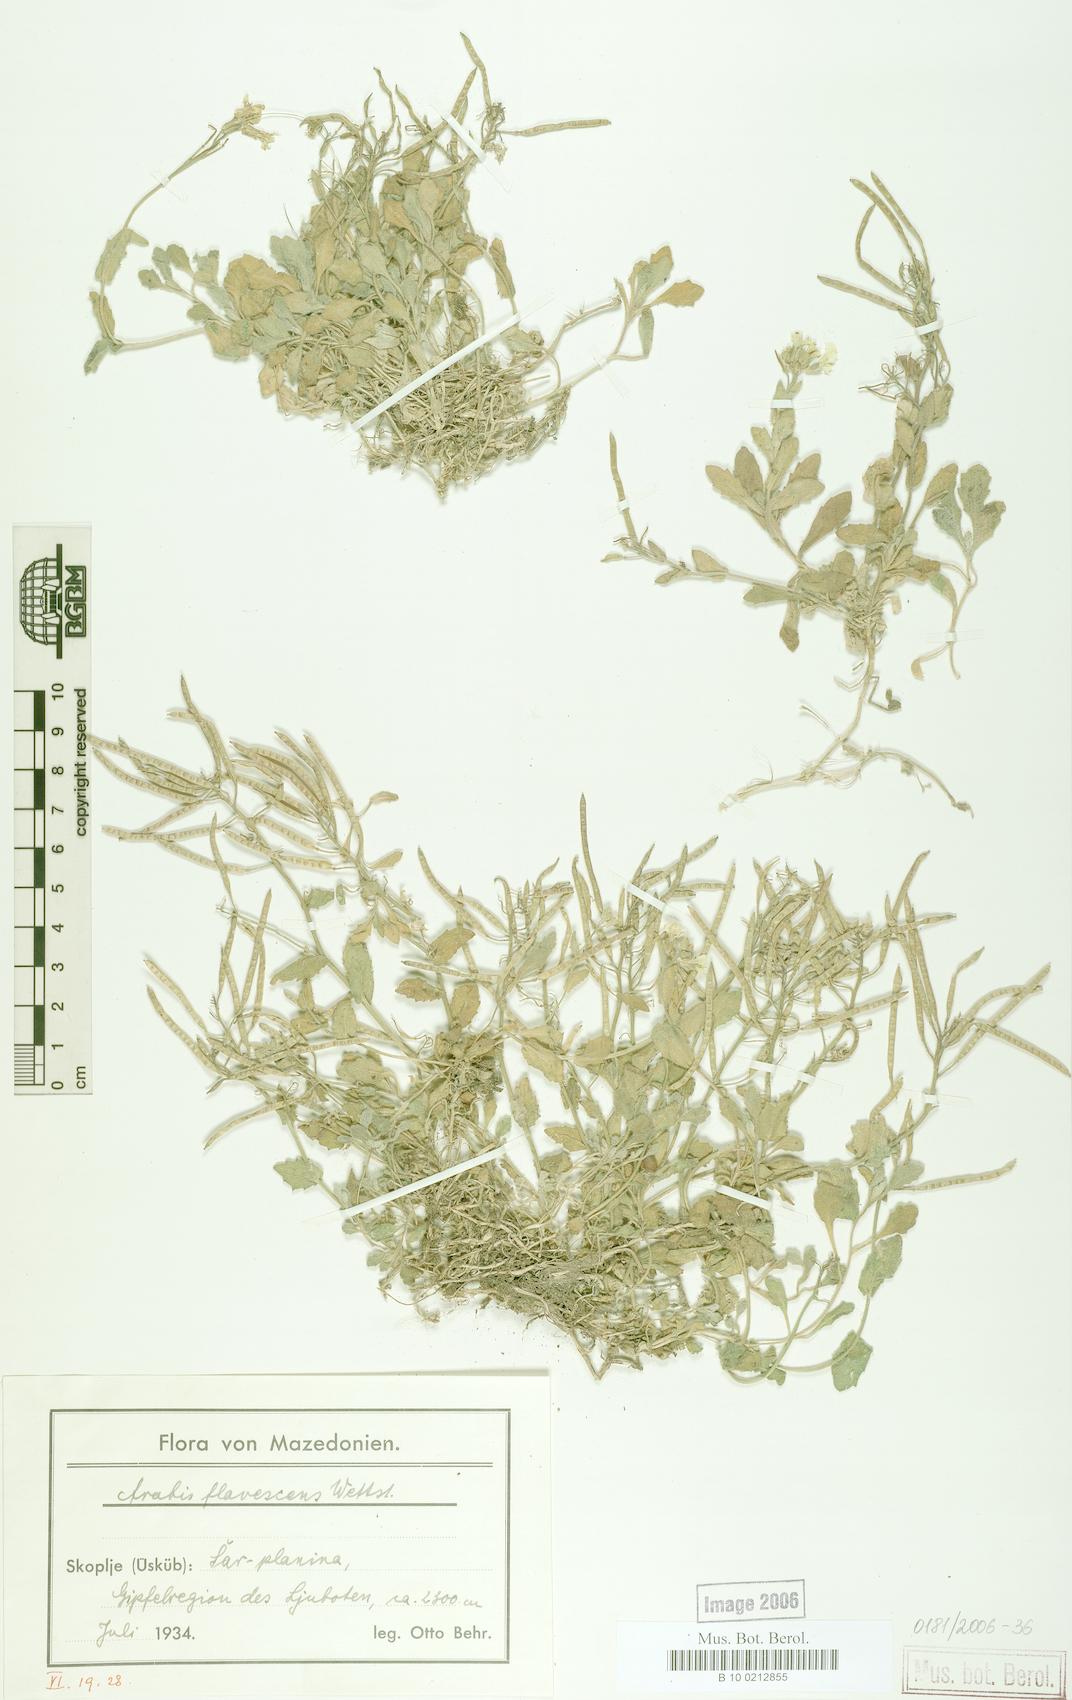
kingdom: Plantae
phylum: Tracheophyta
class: Magnoliopsida
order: Brassicales
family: Brassicaceae
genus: Arabis
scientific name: Arabis
